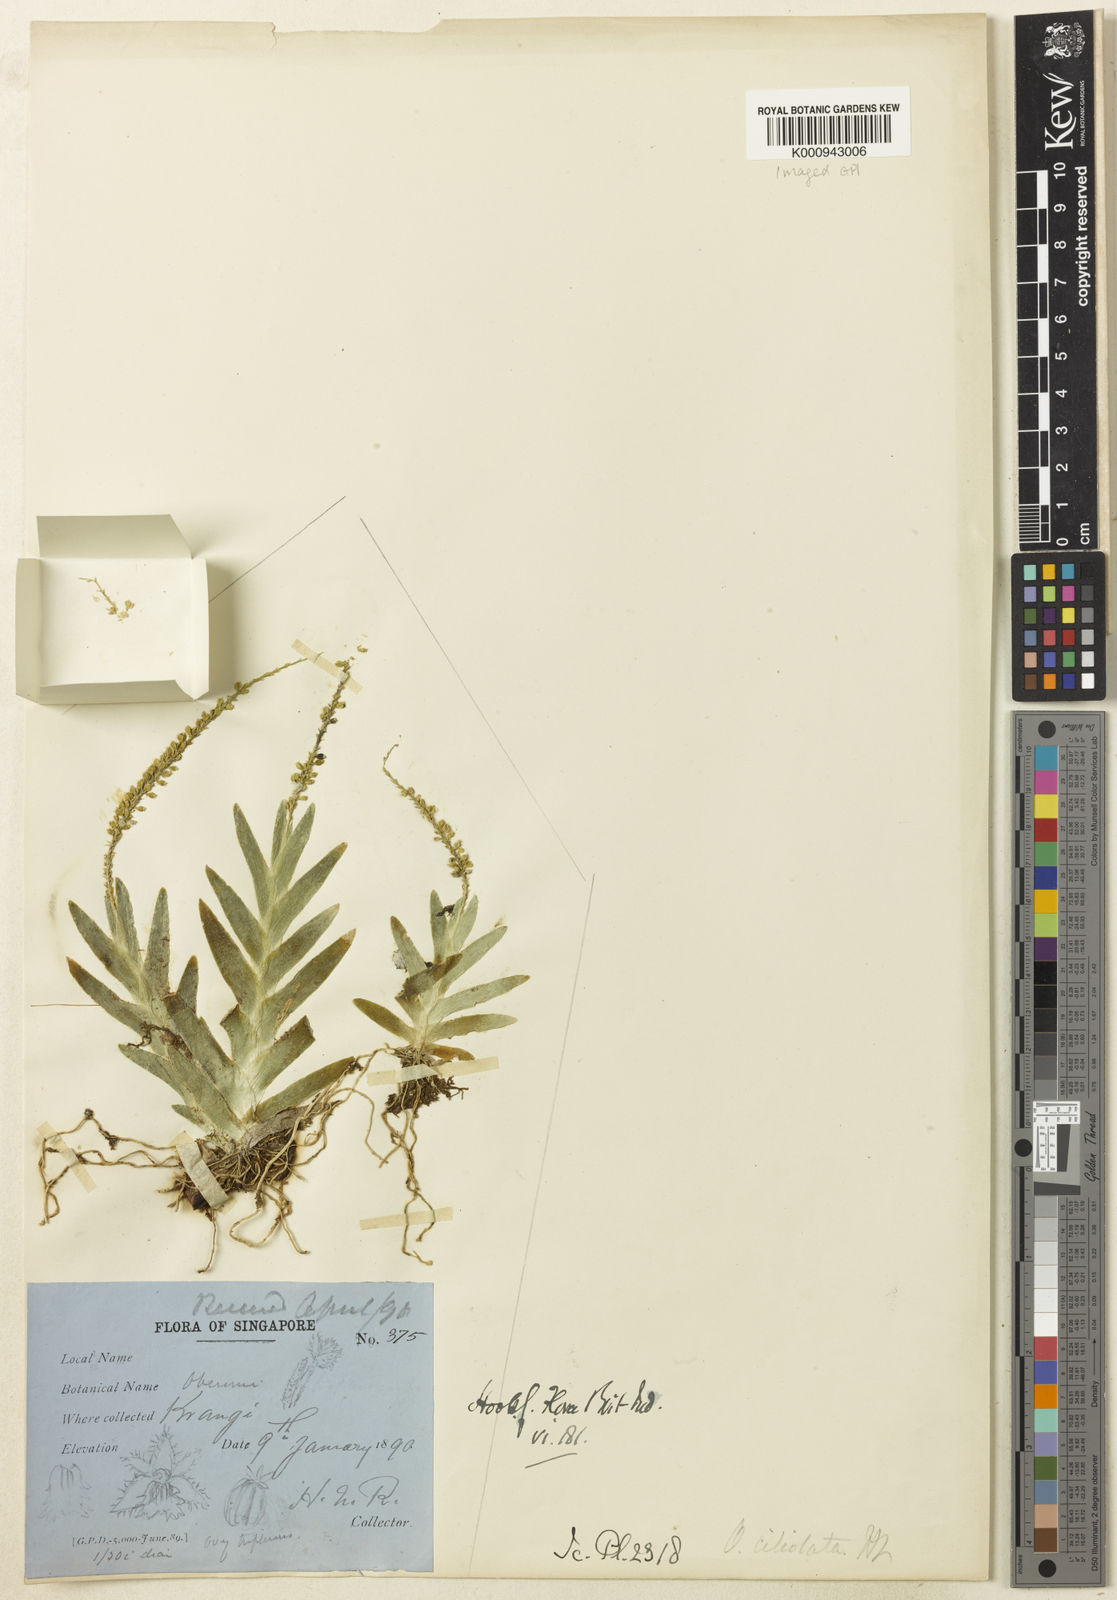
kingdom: Plantae
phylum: Tracheophyta
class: Liliopsida
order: Asparagales
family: Orchidaceae
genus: Oberonia
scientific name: Oberonia equitans
